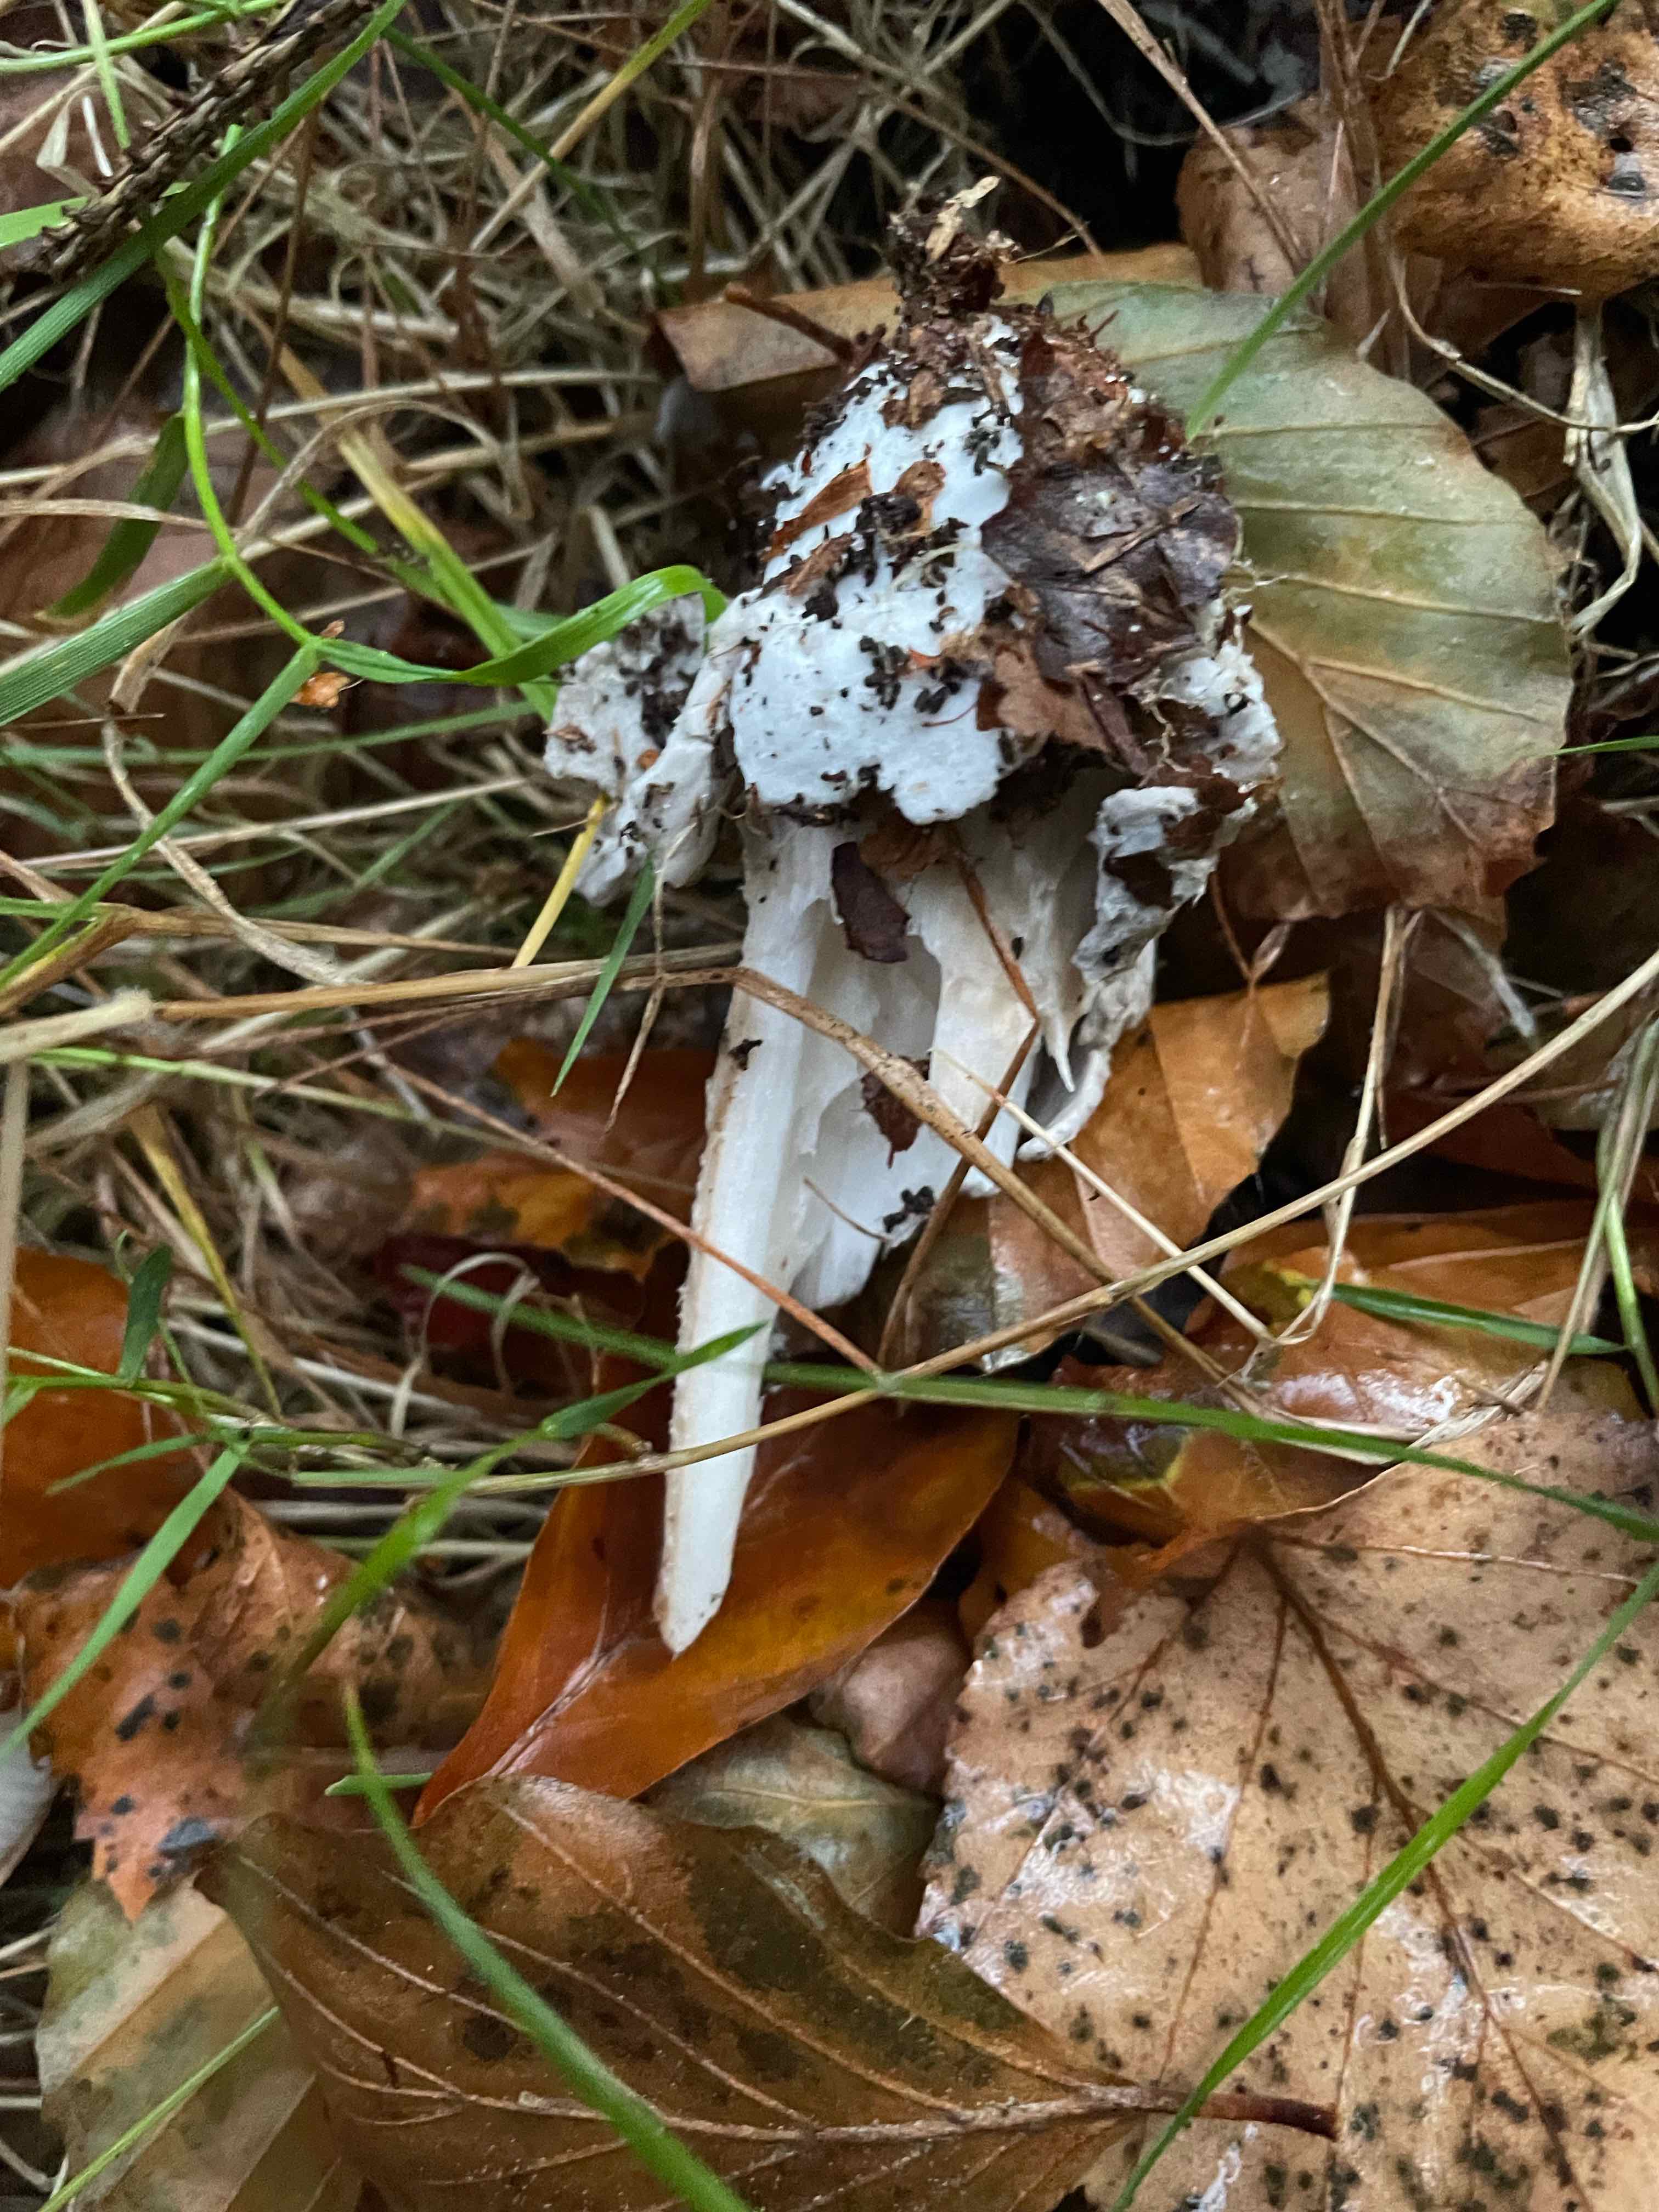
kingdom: Fungi
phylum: Basidiomycota
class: Agaricomycetes
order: Agaricales
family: Amanitaceae
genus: Amanita
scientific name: Amanita
